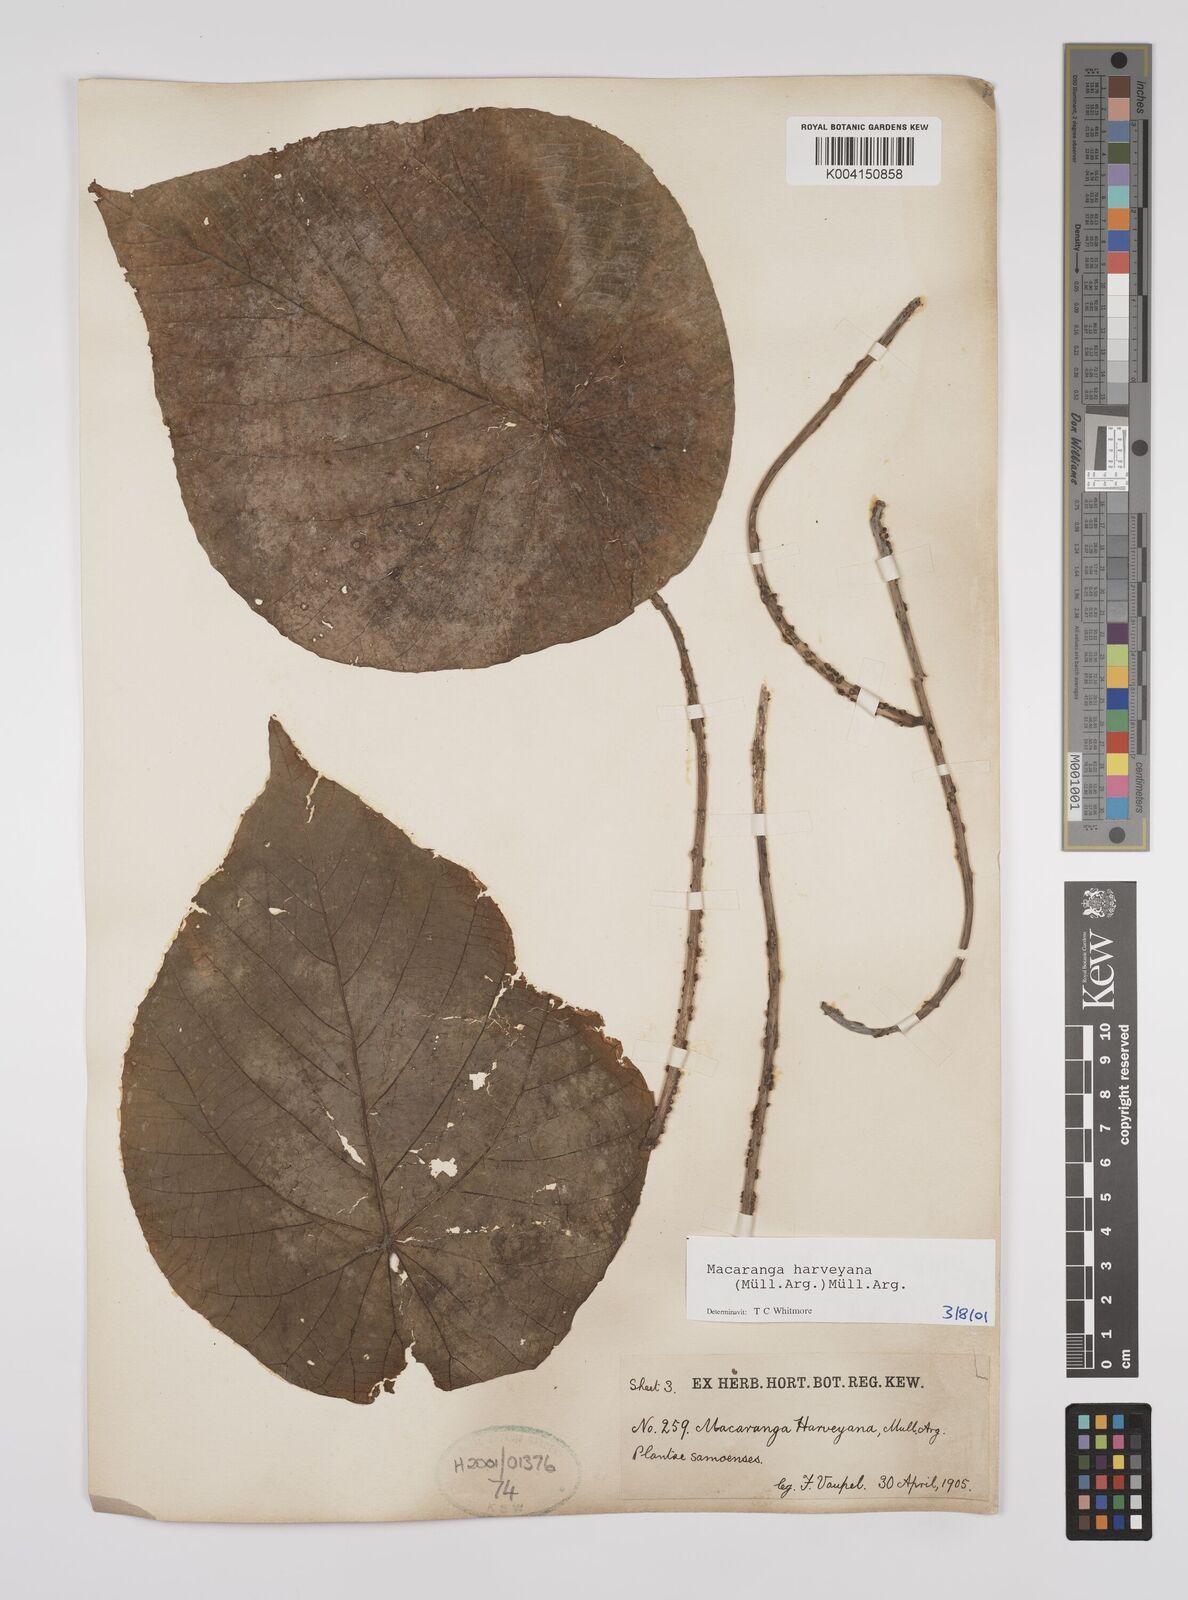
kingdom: Plantae
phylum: Tracheophyta
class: Magnoliopsida
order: Malpighiales
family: Euphorbiaceae
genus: Macaranga
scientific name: Macaranga harveyana
